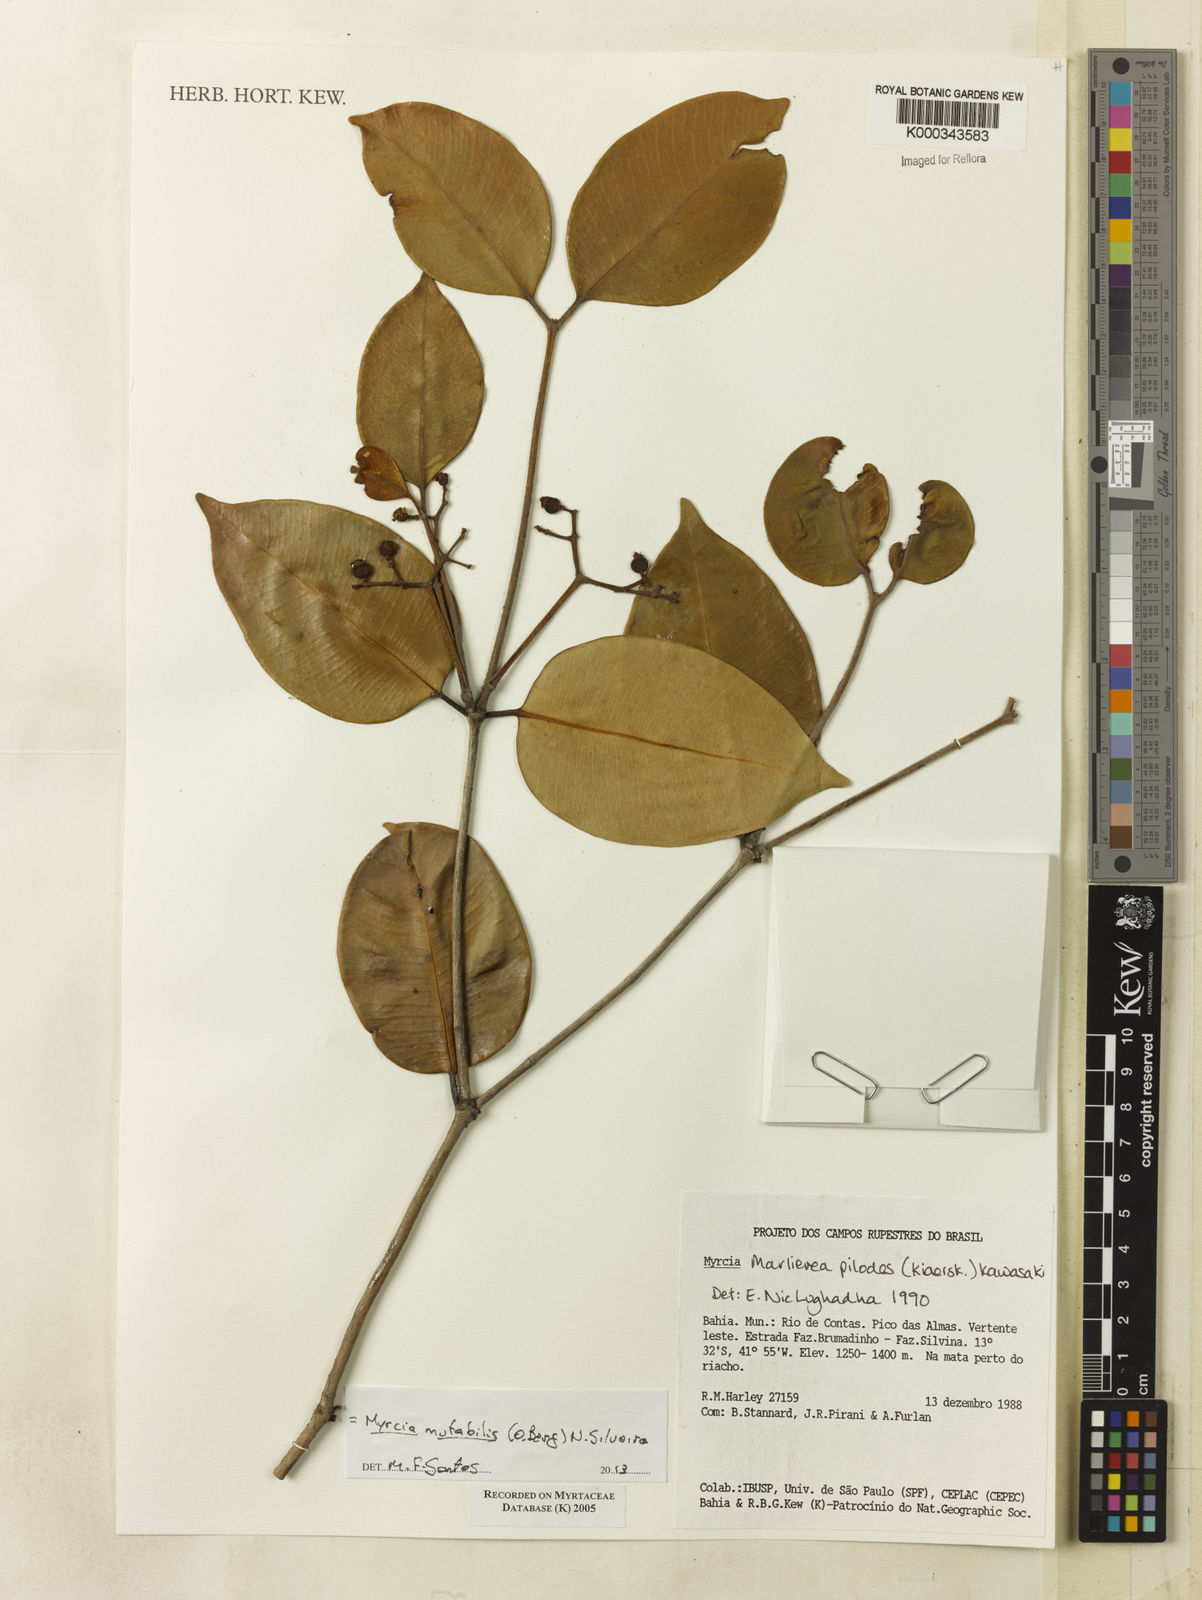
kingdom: Plantae
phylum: Tracheophyta
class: Magnoliopsida
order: Myrtales
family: Myrtaceae
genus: Myrcia
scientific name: Myrcia mutabilis
